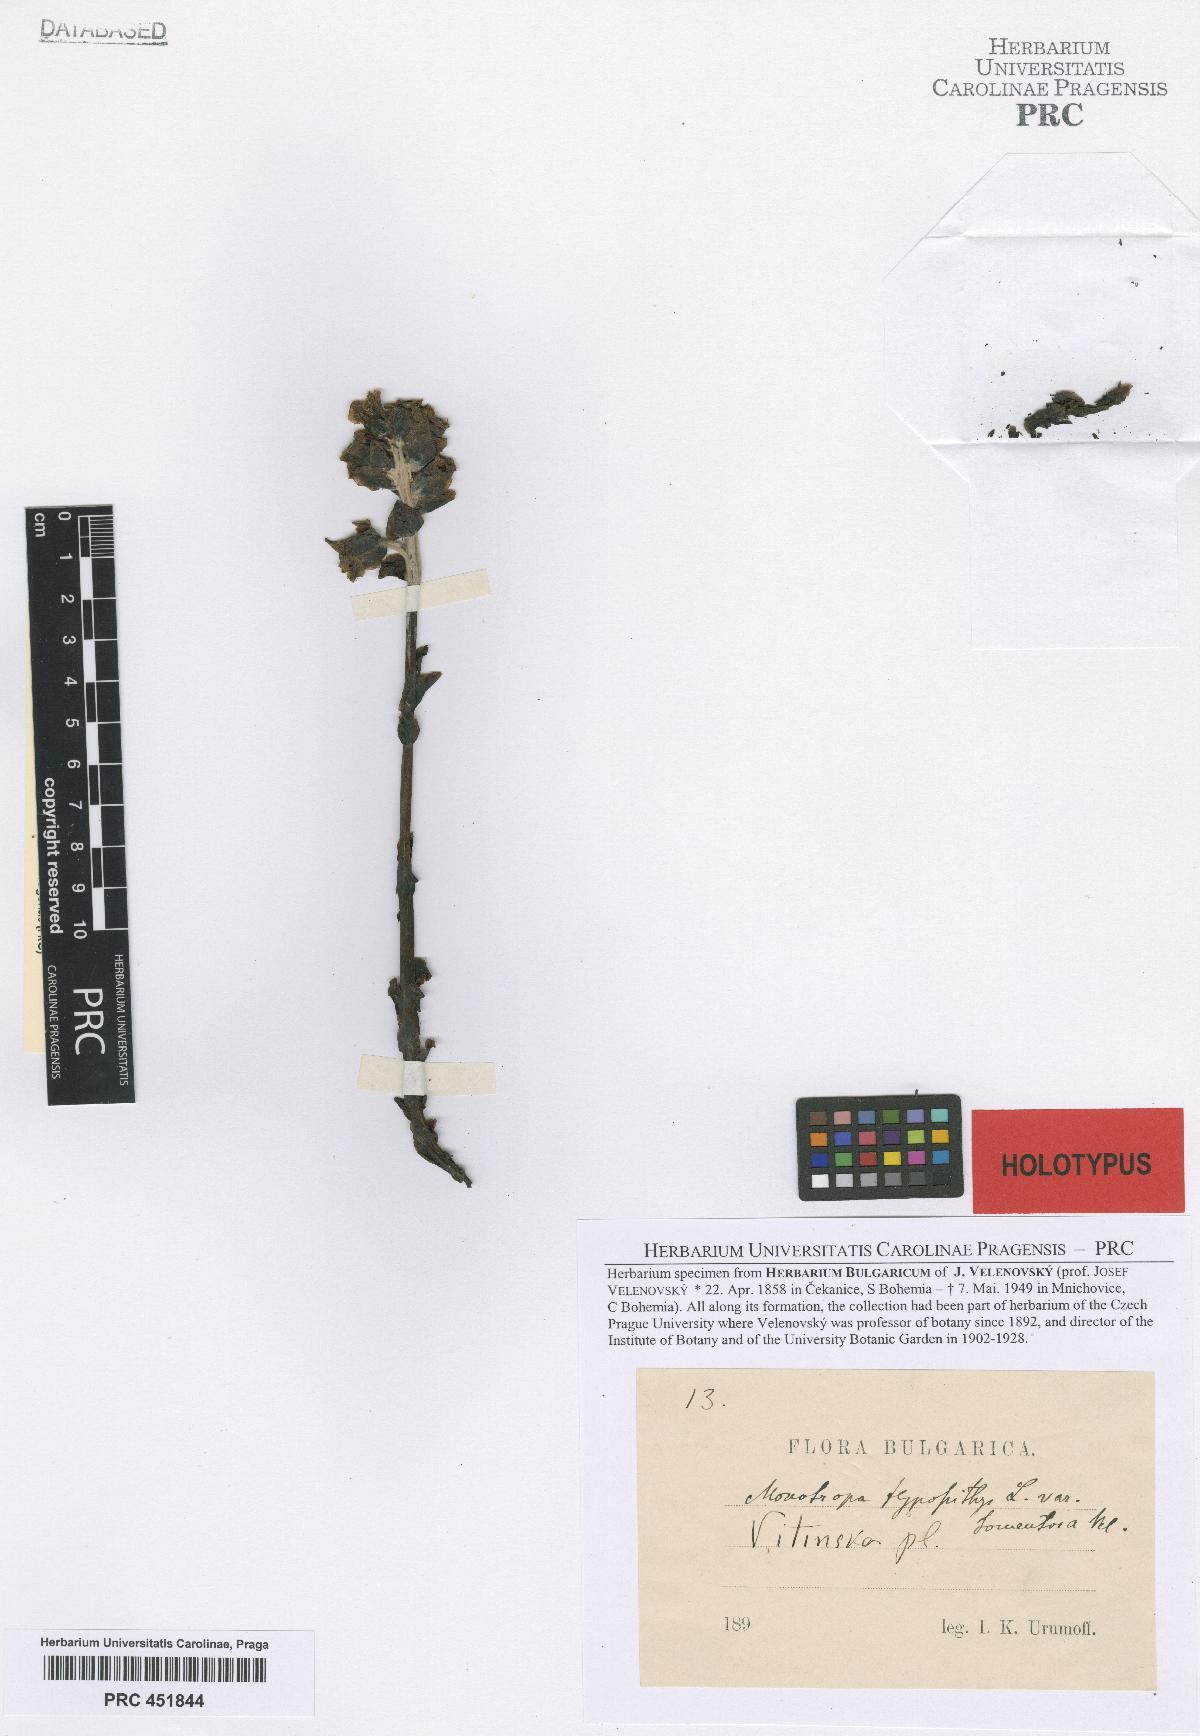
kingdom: Plantae
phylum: Tracheophyta
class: Magnoliopsida
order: Ericales
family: Ericaceae
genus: Hypopitys
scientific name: Hypopitys monotropa
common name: Yellow bird's-nest
